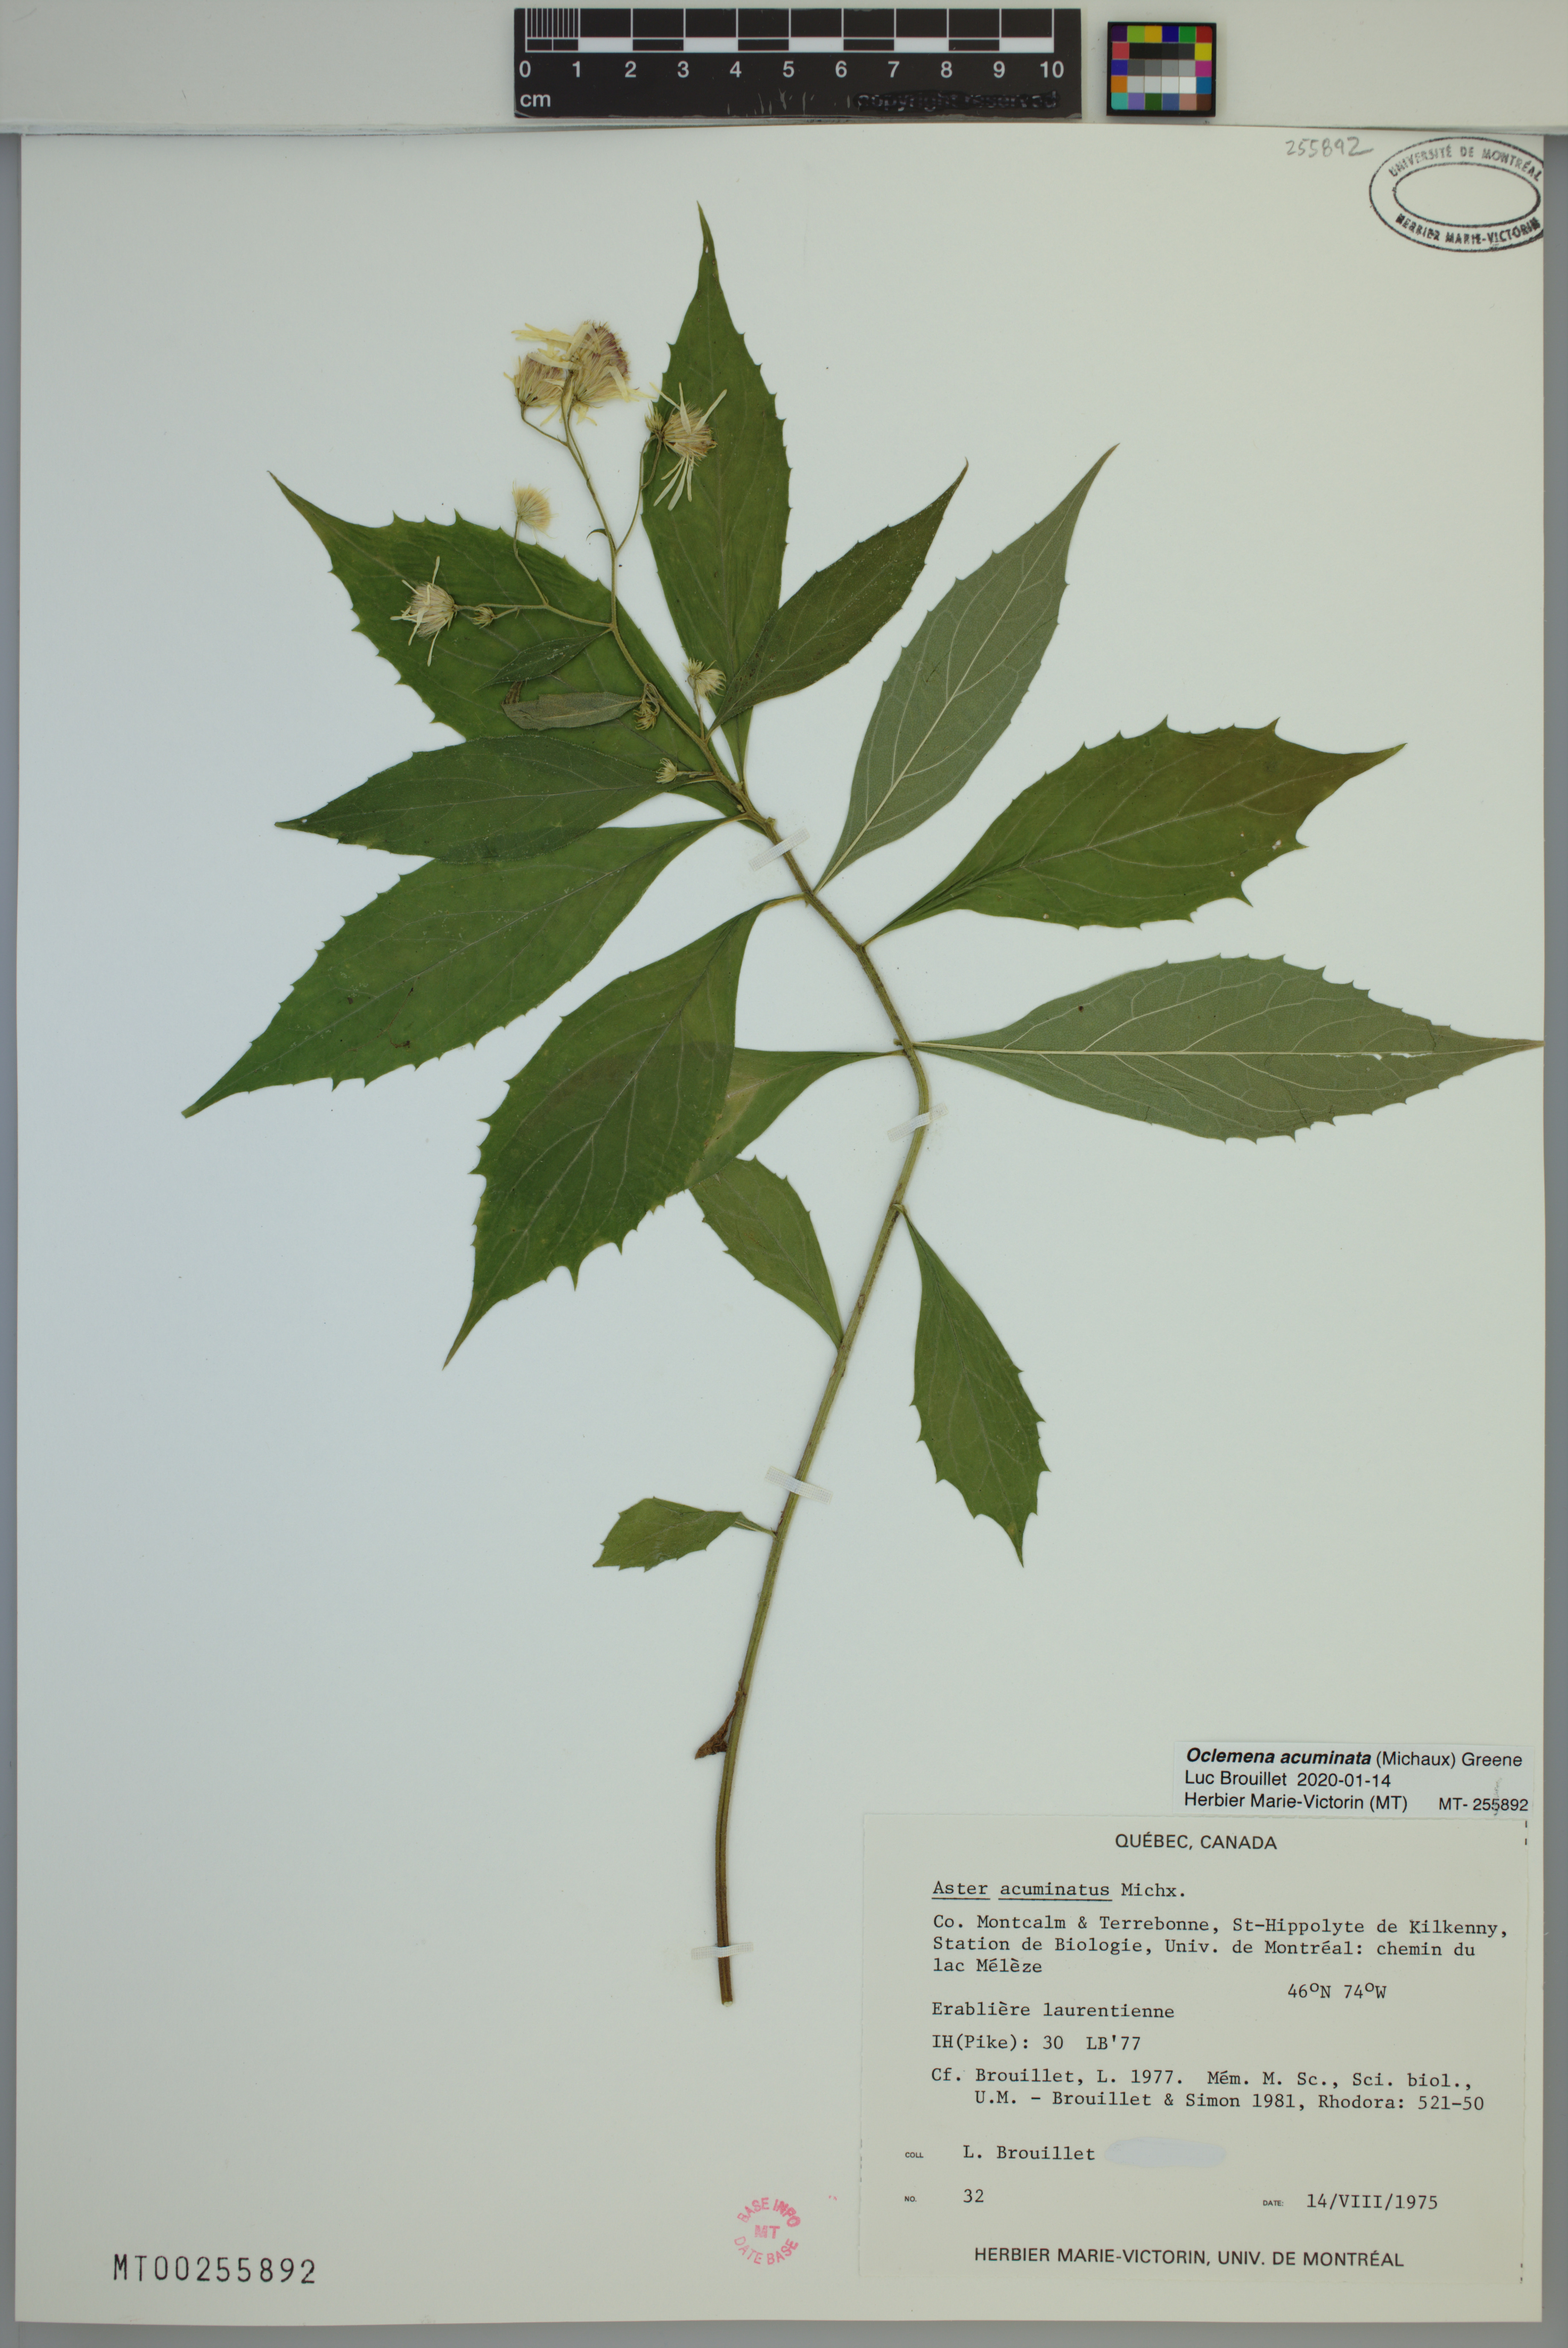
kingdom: Plantae
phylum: Tracheophyta
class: Magnoliopsida
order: Asterales
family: Asteraceae
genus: Oclemena
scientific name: Oclemena acuminata
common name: Mountain aster
